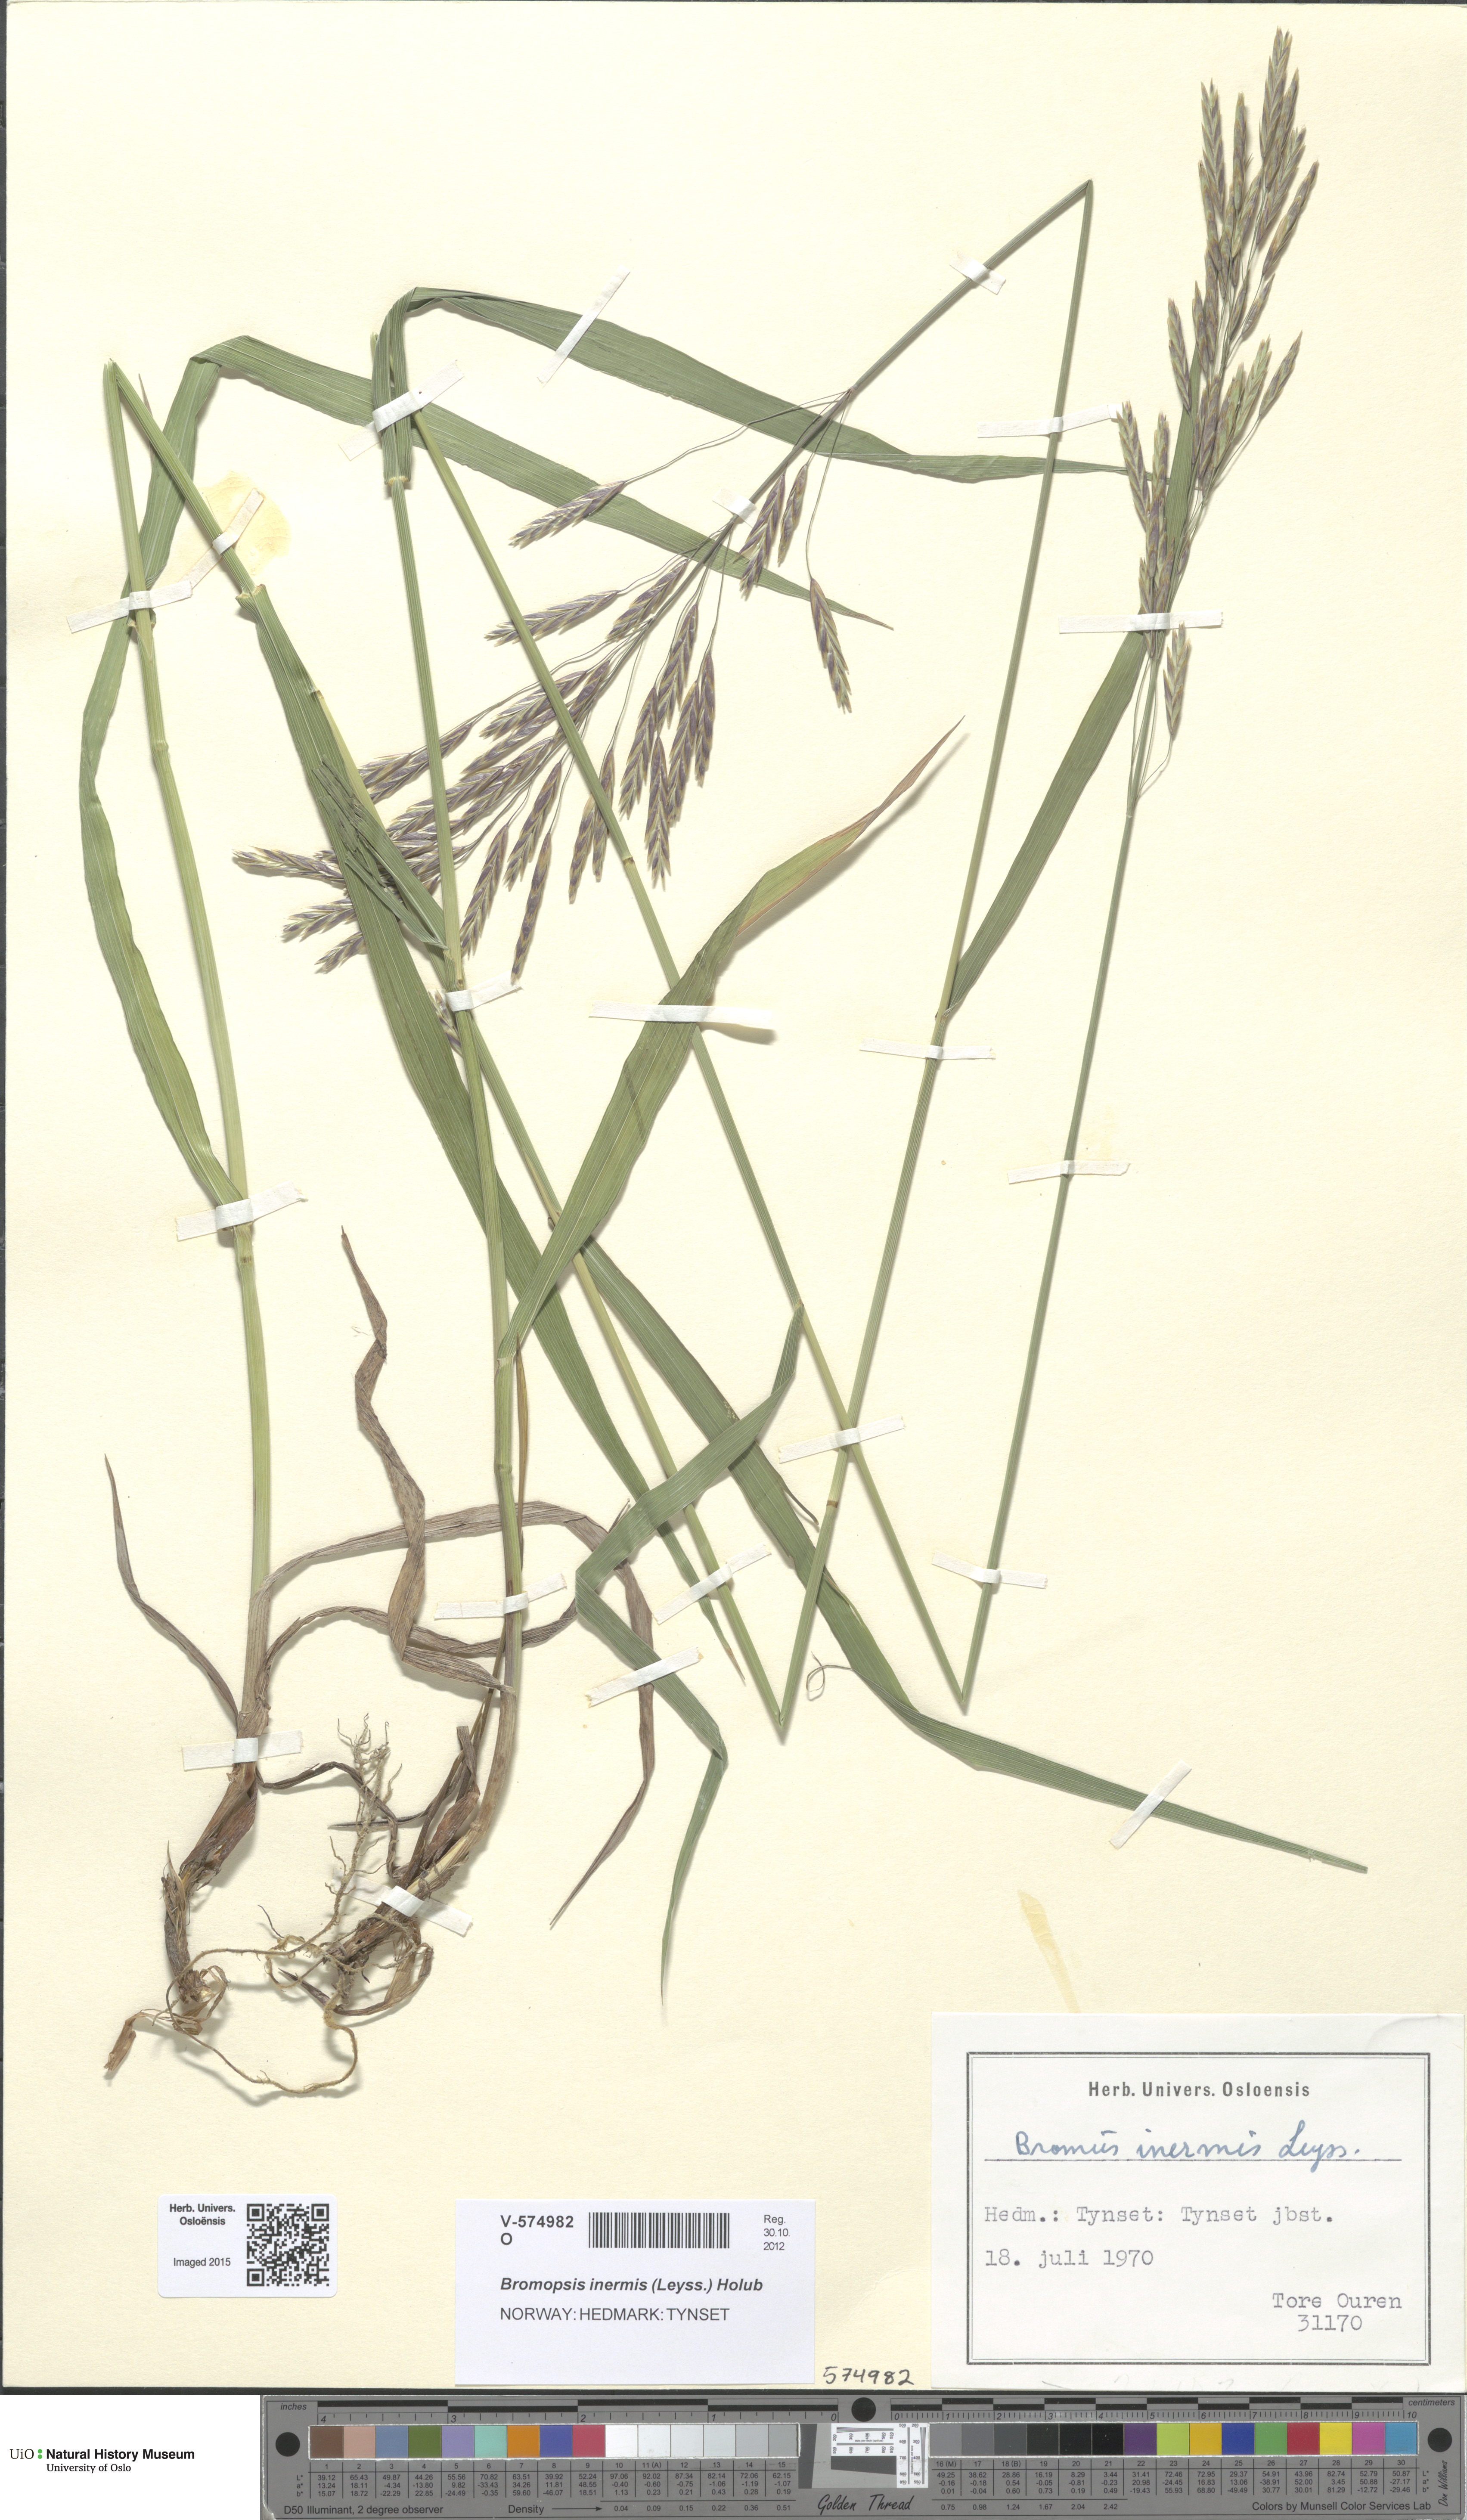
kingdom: Plantae
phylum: Tracheophyta
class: Liliopsida
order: Poales
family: Poaceae
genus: Bromus
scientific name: Bromus inermis
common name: Smooth brome
